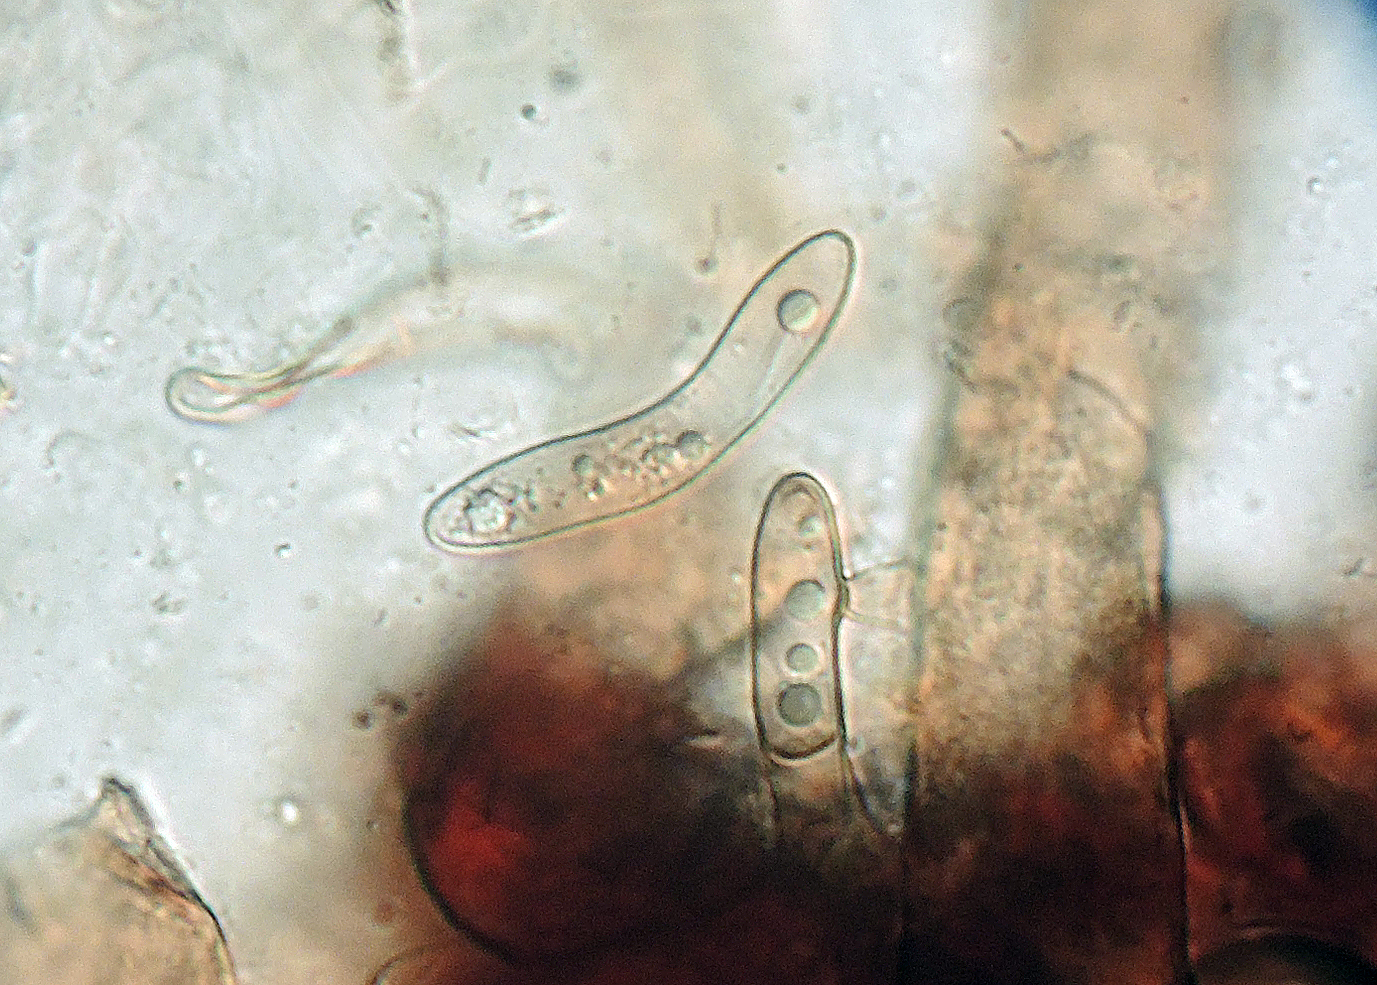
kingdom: Fungi
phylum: Ascomycota
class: Sordariomycetes
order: Sordariales
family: Helminthosphaeriaceae
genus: Echinosphaeria
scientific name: Echinosphaeria canescens
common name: brun børstekerne
